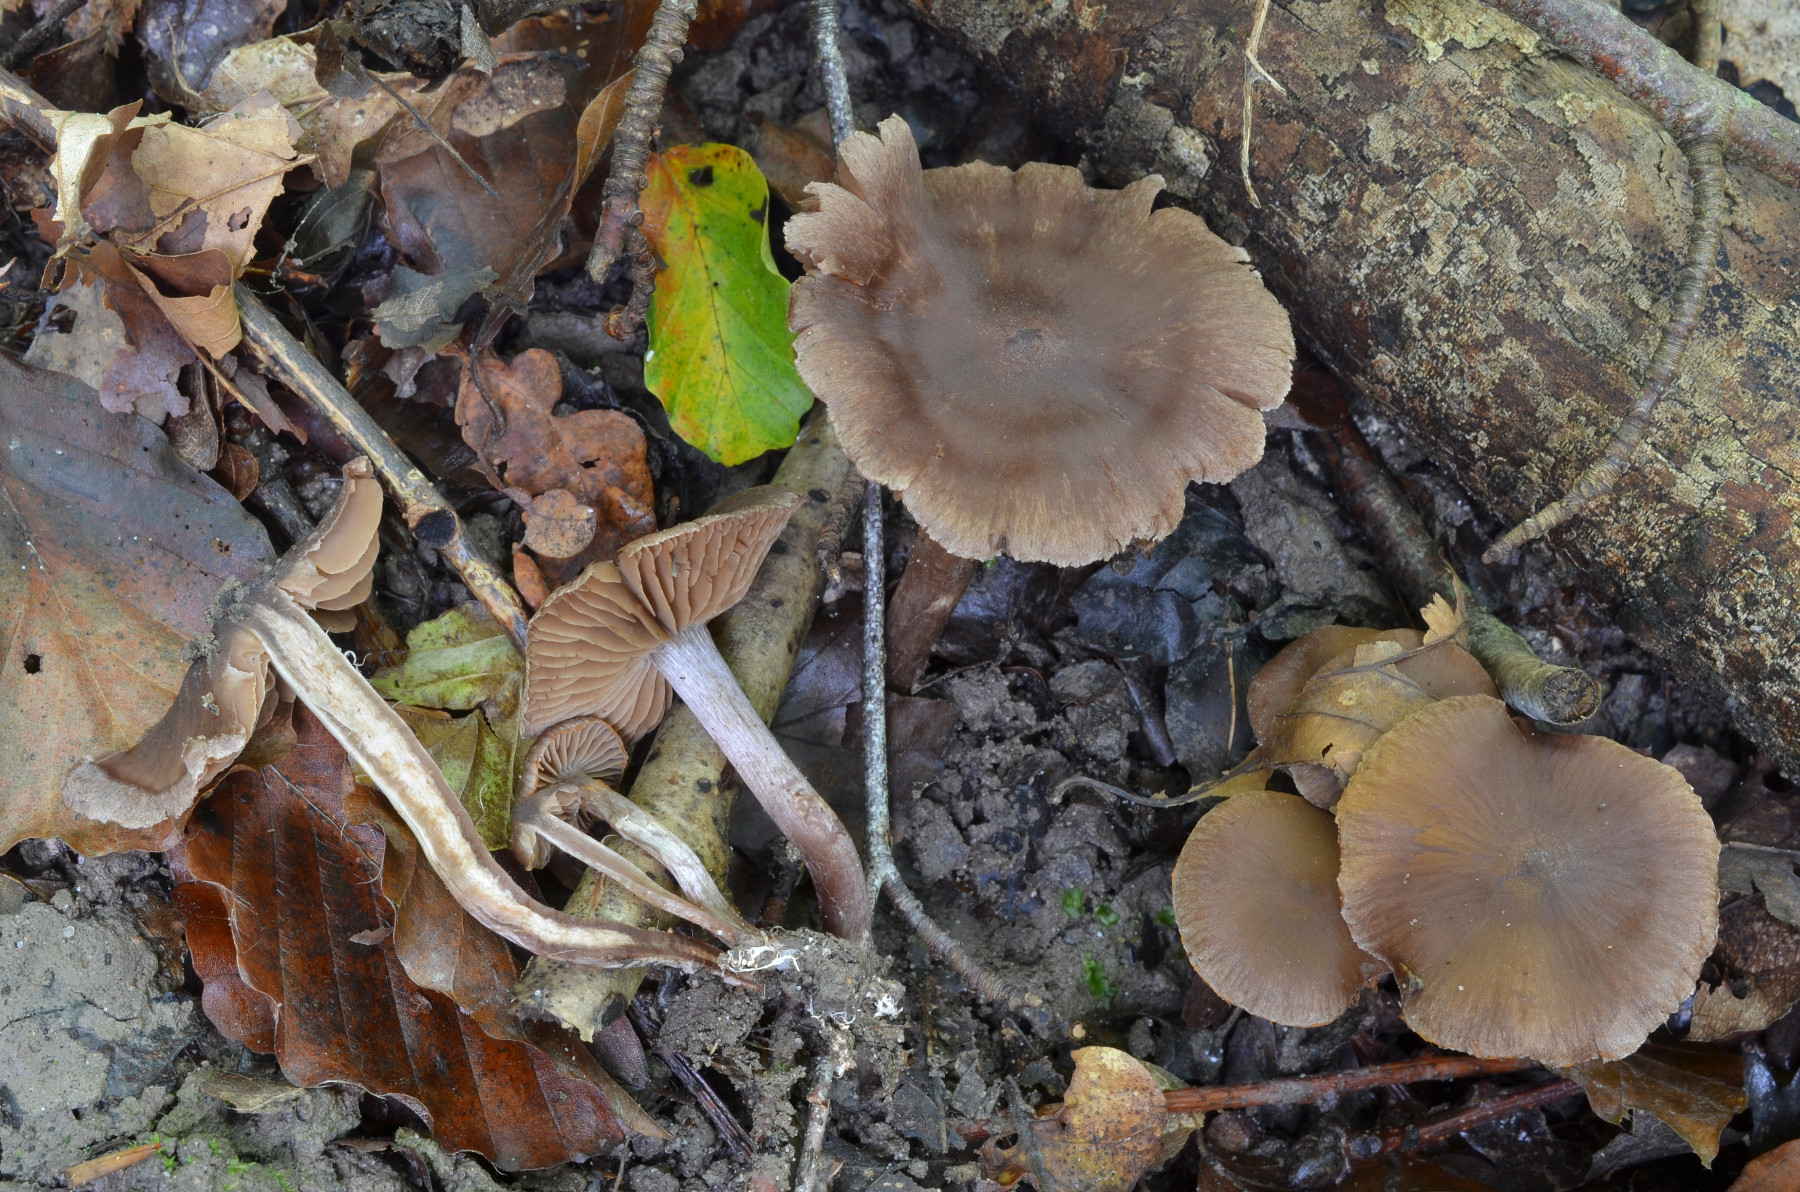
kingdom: Fungi
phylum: Basidiomycota
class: Agaricomycetes
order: Agaricales
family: Cortinariaceae
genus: Cortinarius
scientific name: Cortinarius subcastaneus
